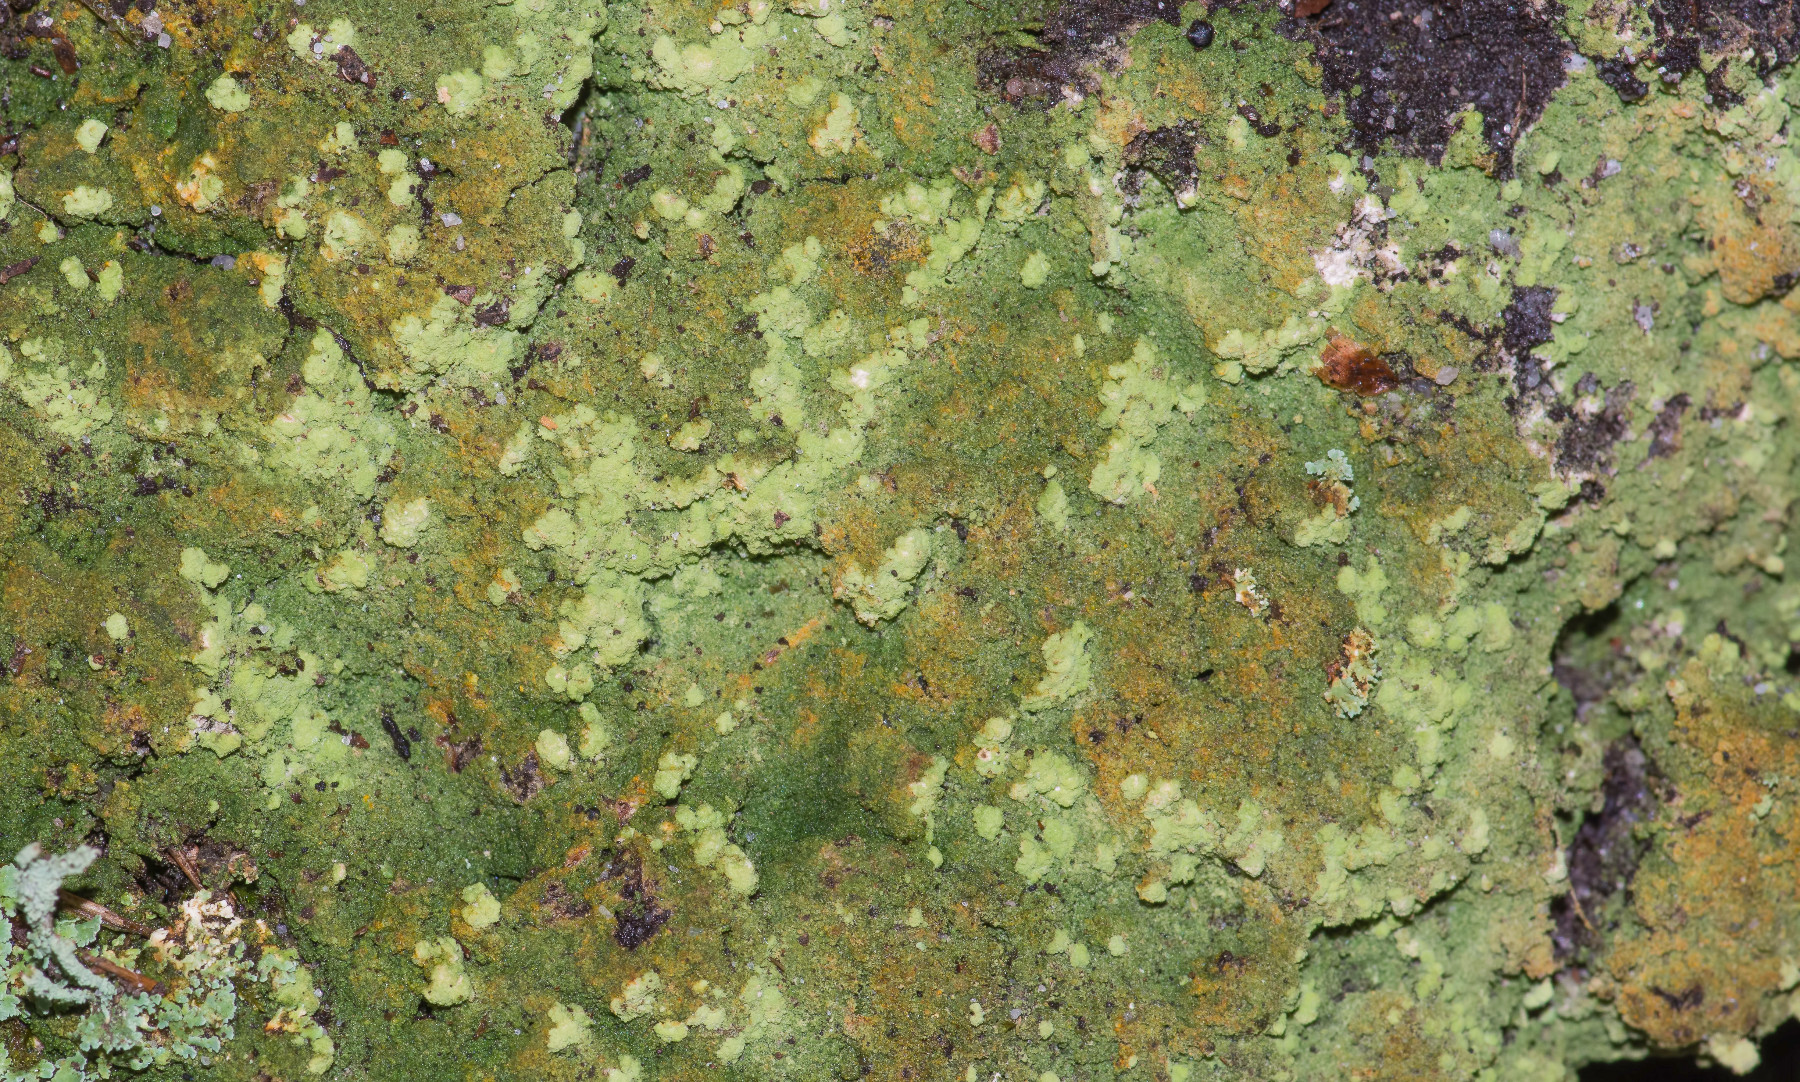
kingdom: Fungi
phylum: Ascomycota
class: Lecanoromycetes
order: Baeomycetales
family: Trapeliaceae
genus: Trapeliopsis
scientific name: Trapeliopsis pseudogranulosa
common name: gulbroget skivelav
